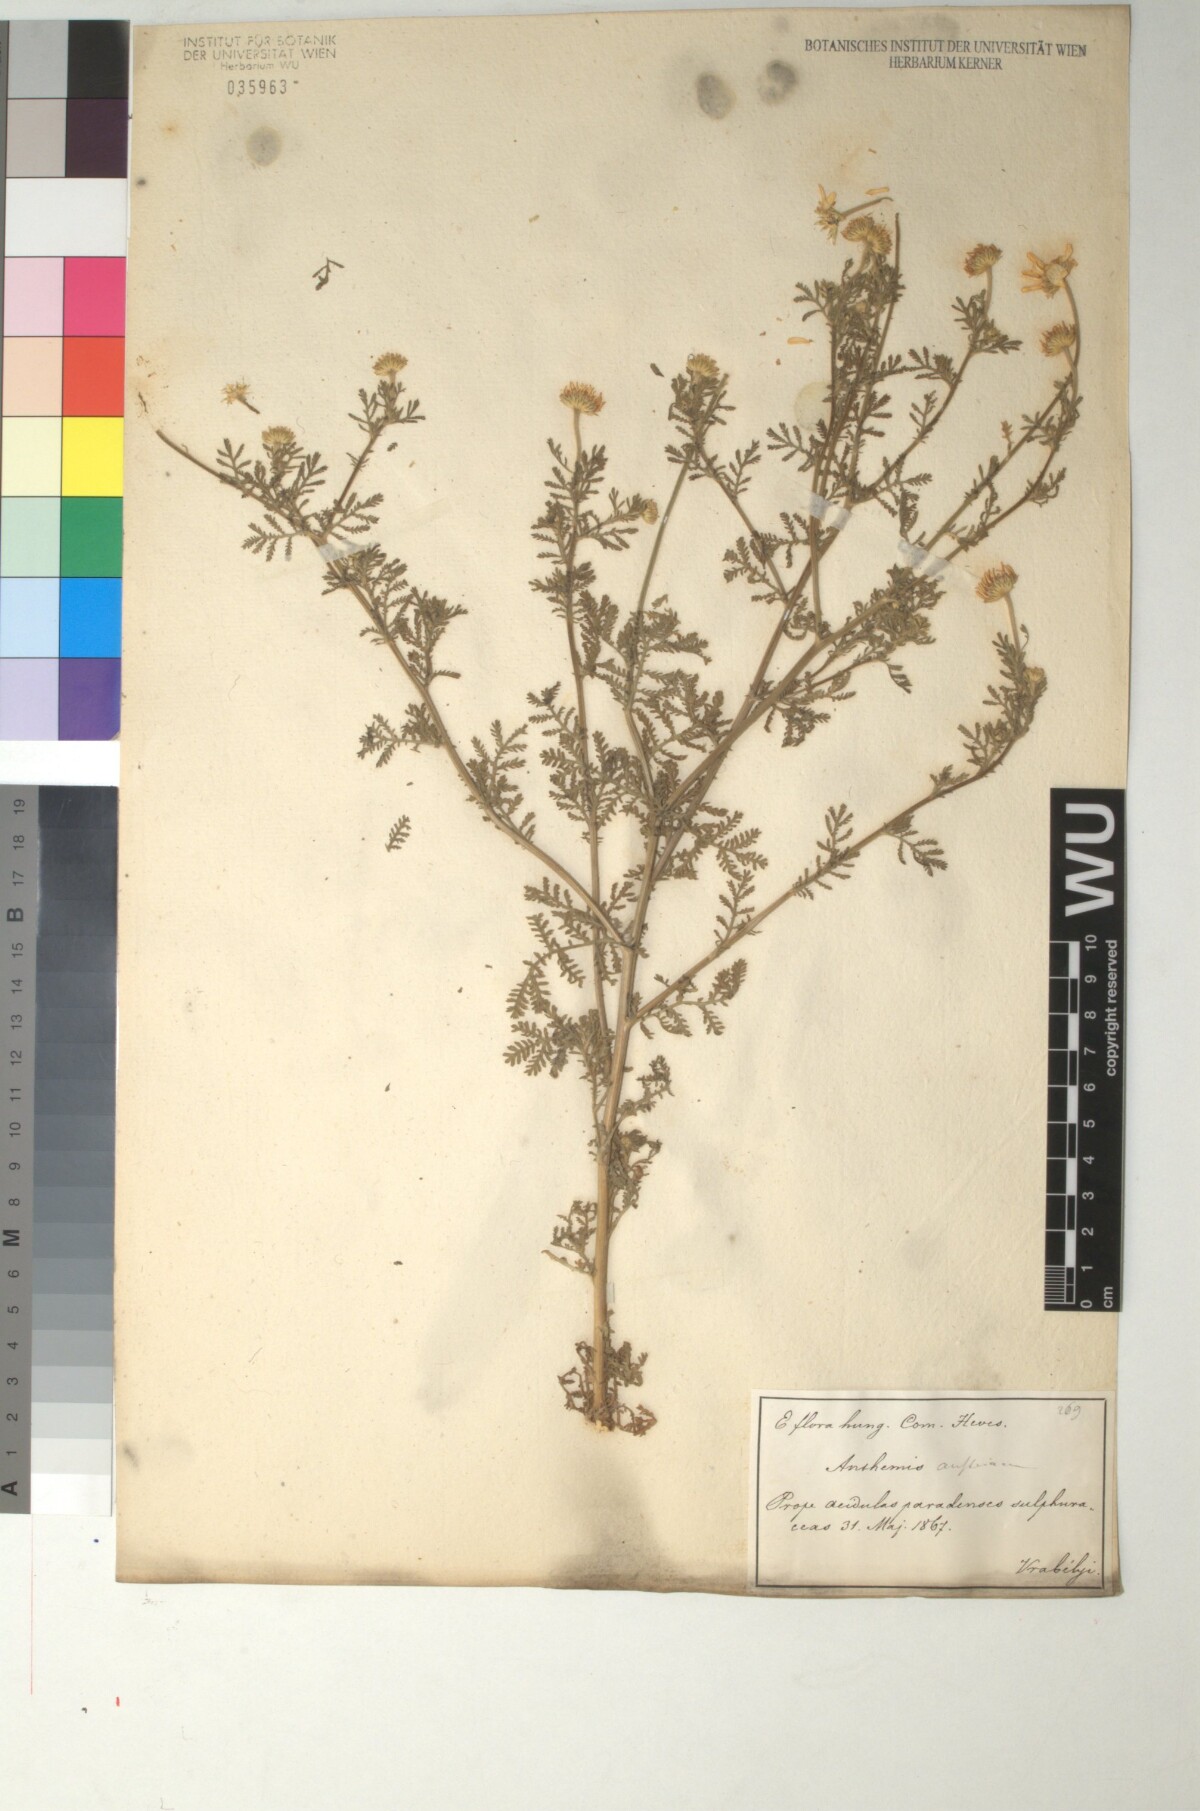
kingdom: Plantae
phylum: Tracheophyta
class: Magnoliopsida
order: Asterales
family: Asteraceae
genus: Cota
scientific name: Cota austriaca
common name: Austrian chamomile
